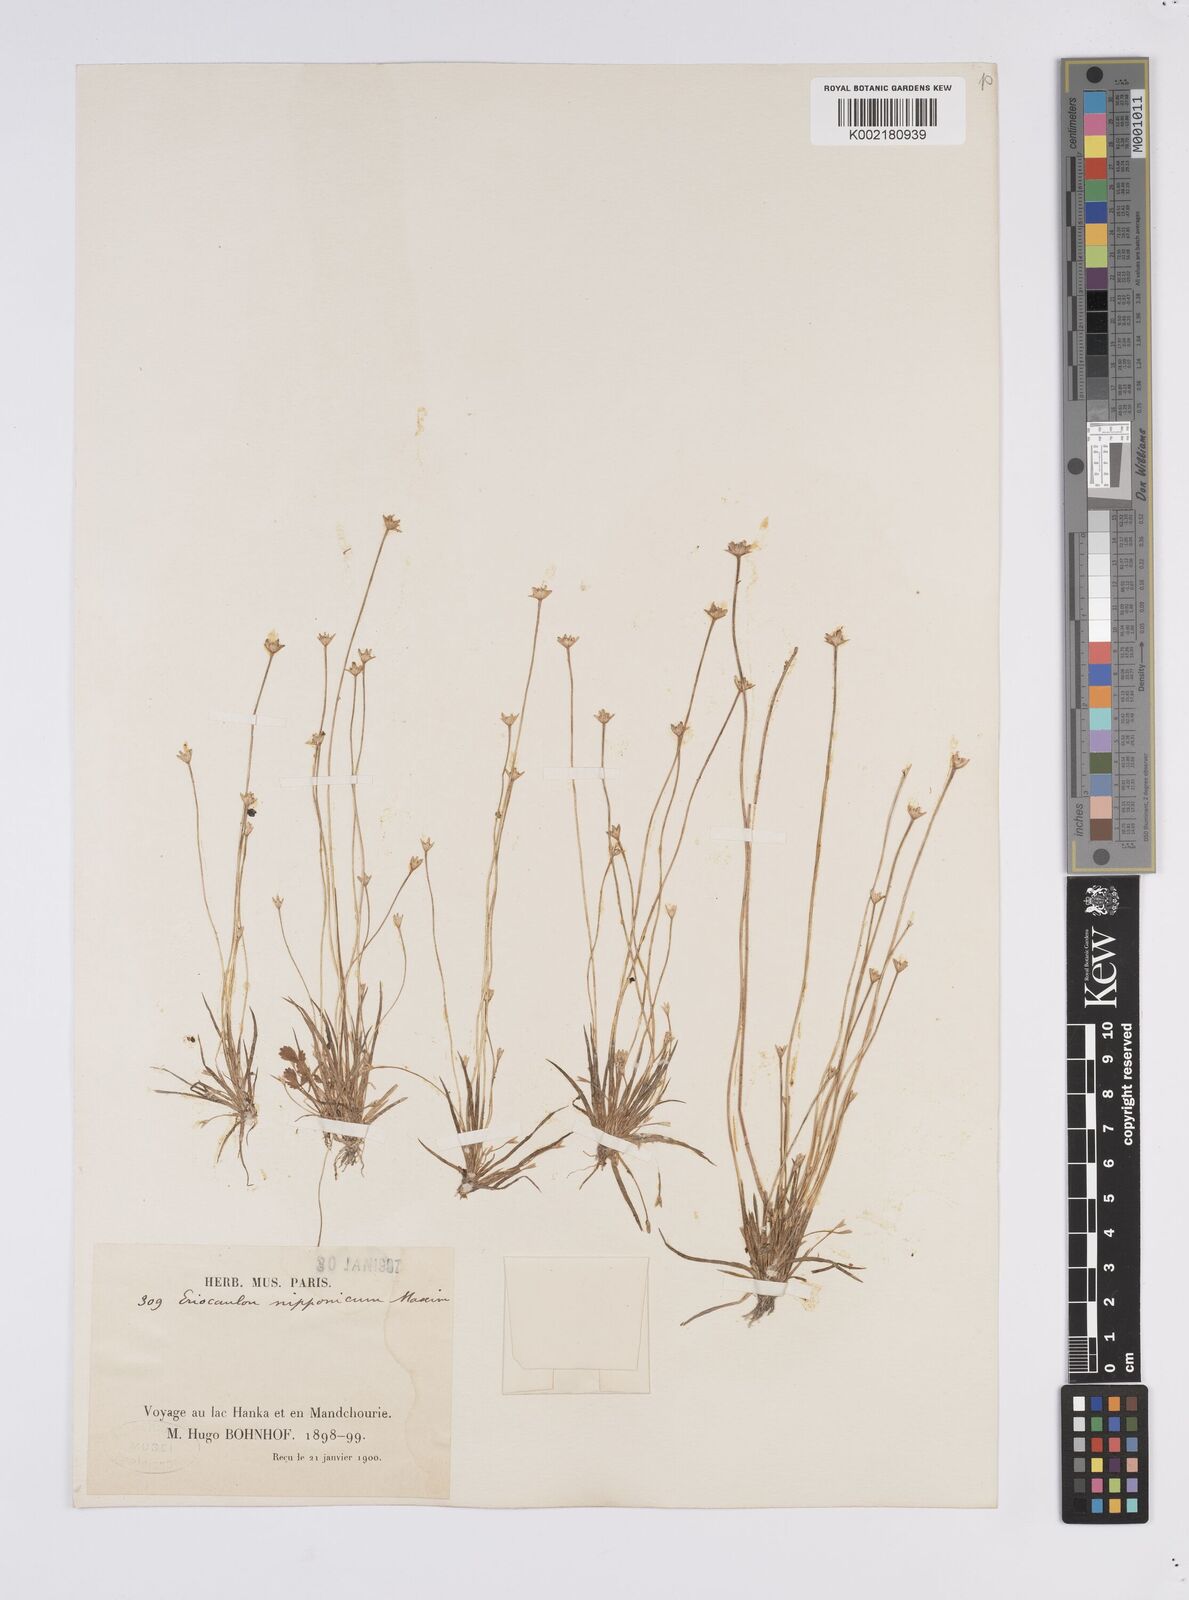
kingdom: Plantae
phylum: Tracheophyta
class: Liliopsida
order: Poales
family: Eriocaulaceae
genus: Eriocaulon
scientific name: Eriocaulon decemflorum
